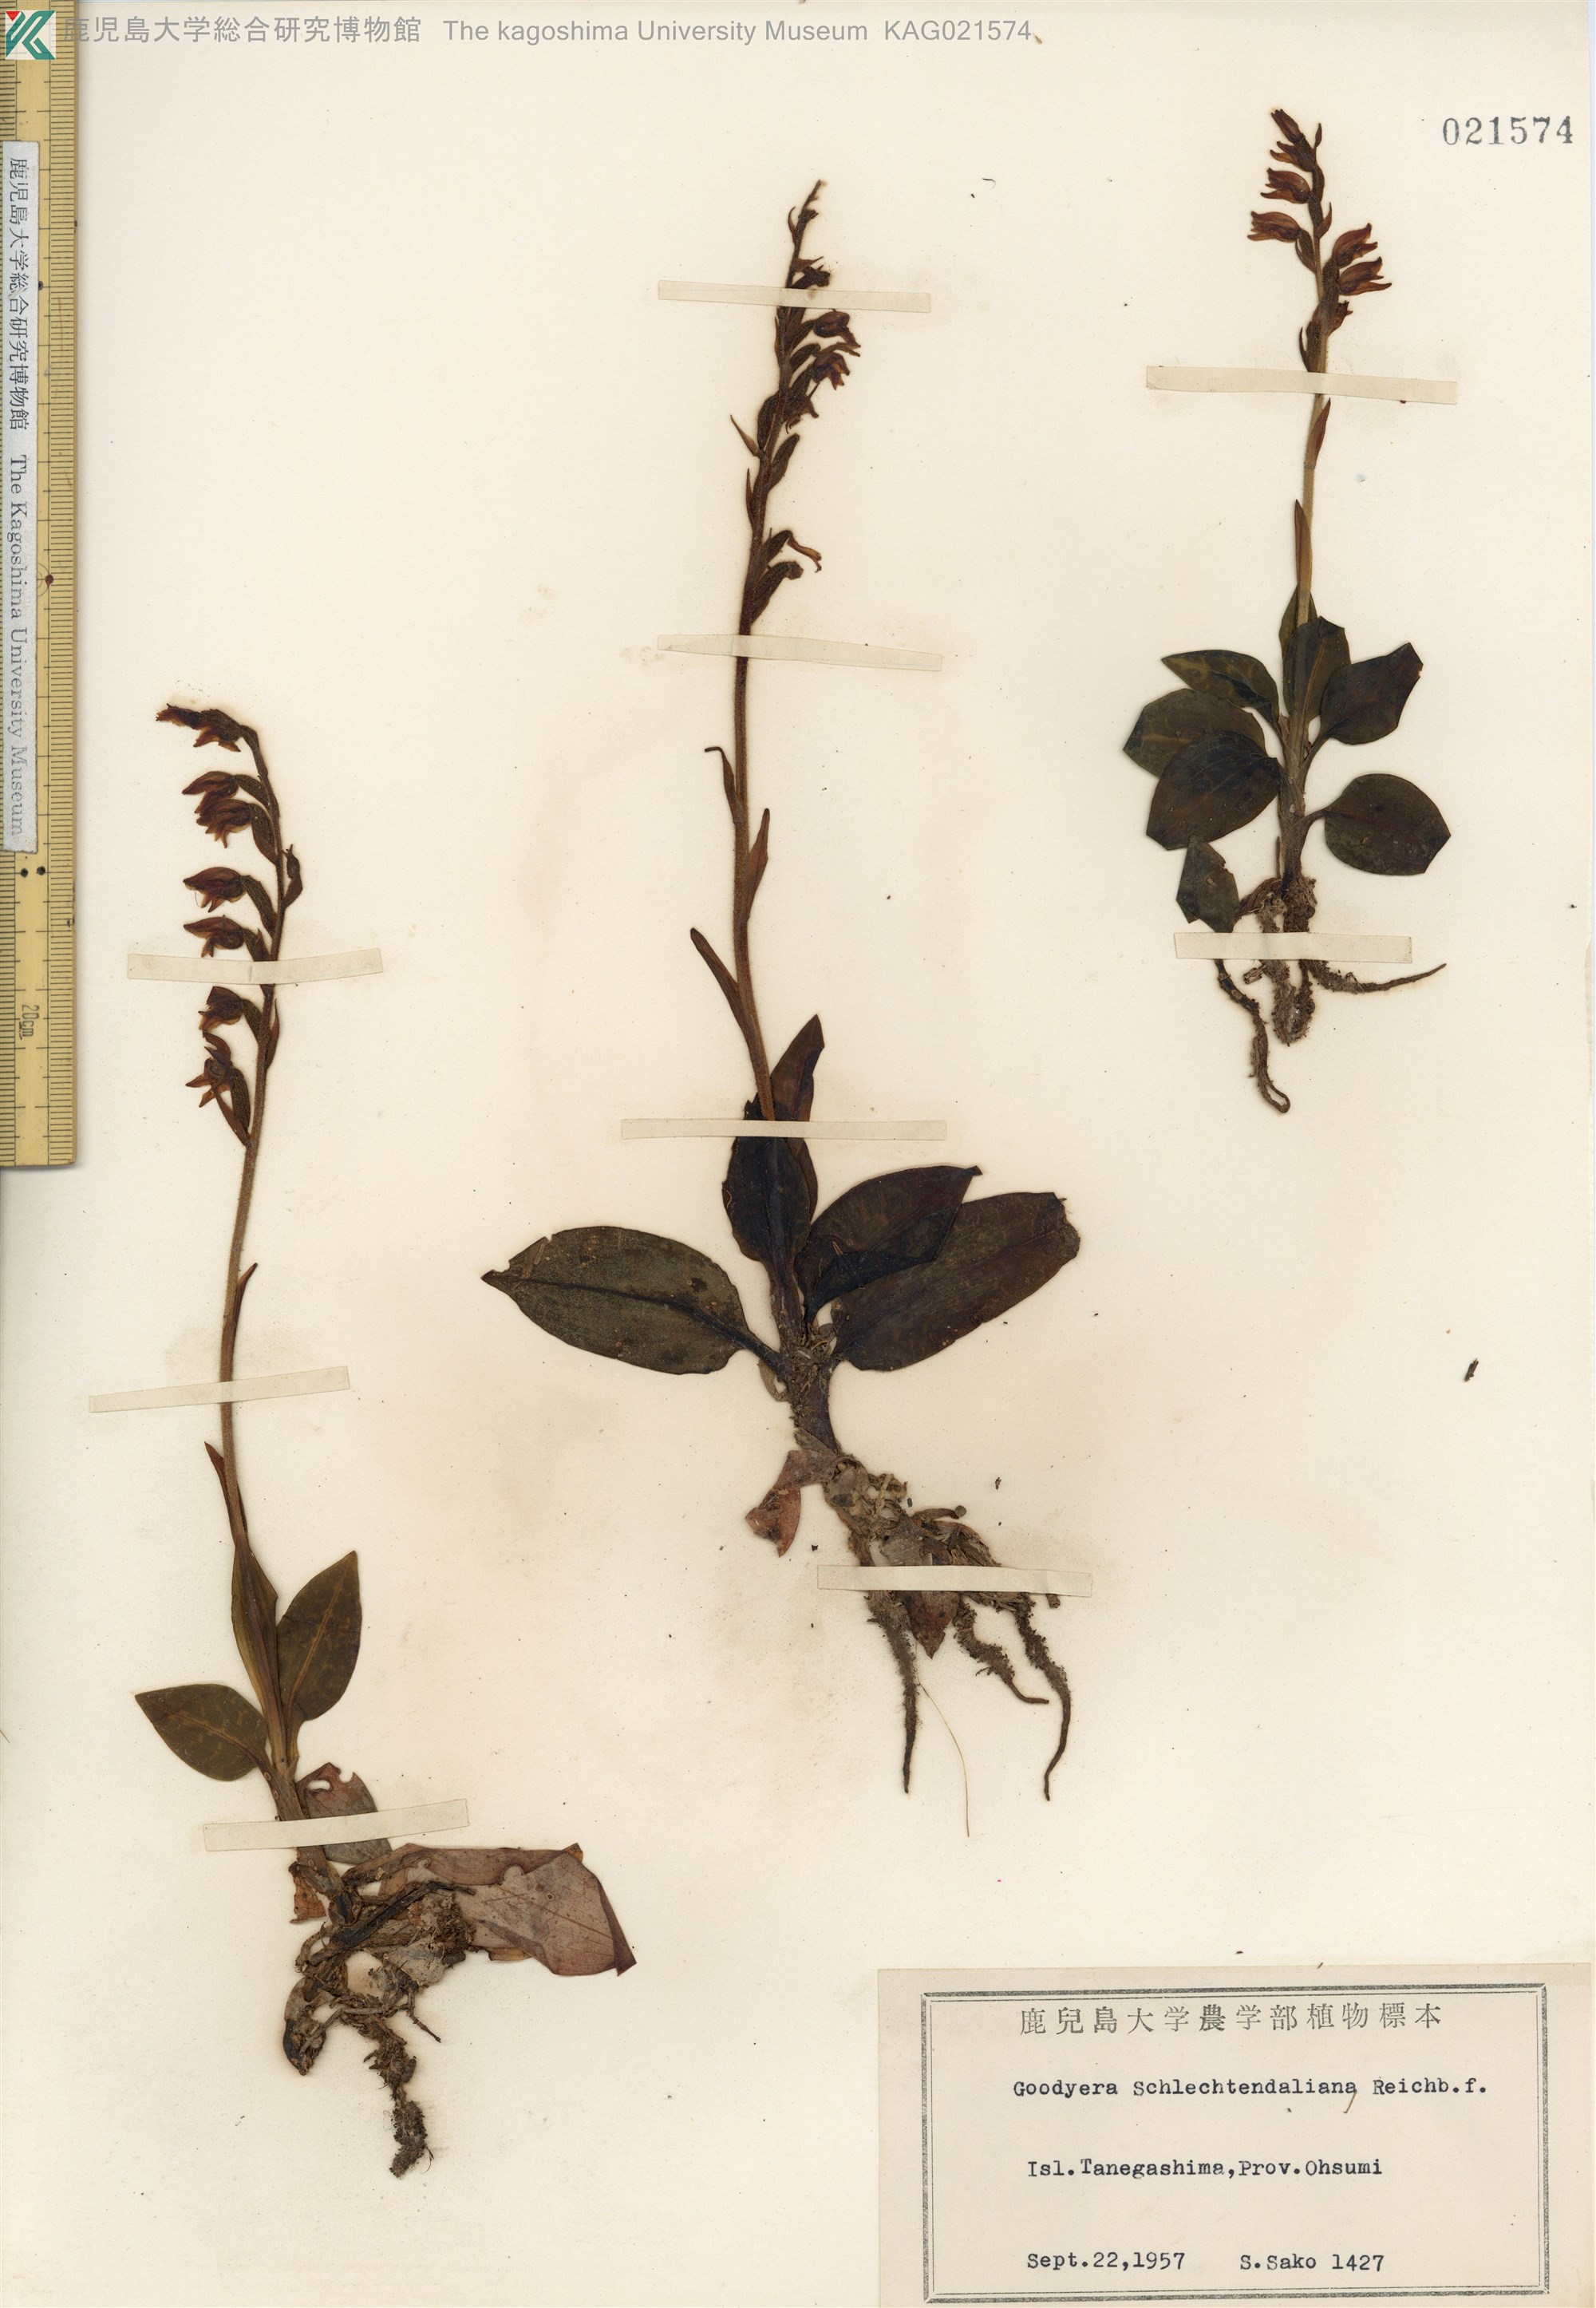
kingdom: Plantae
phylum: Tracheophyta
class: Liliopsida
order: Asparagales
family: Orchidaceae
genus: Goodyera
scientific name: Goodyera schlechtendaliana
